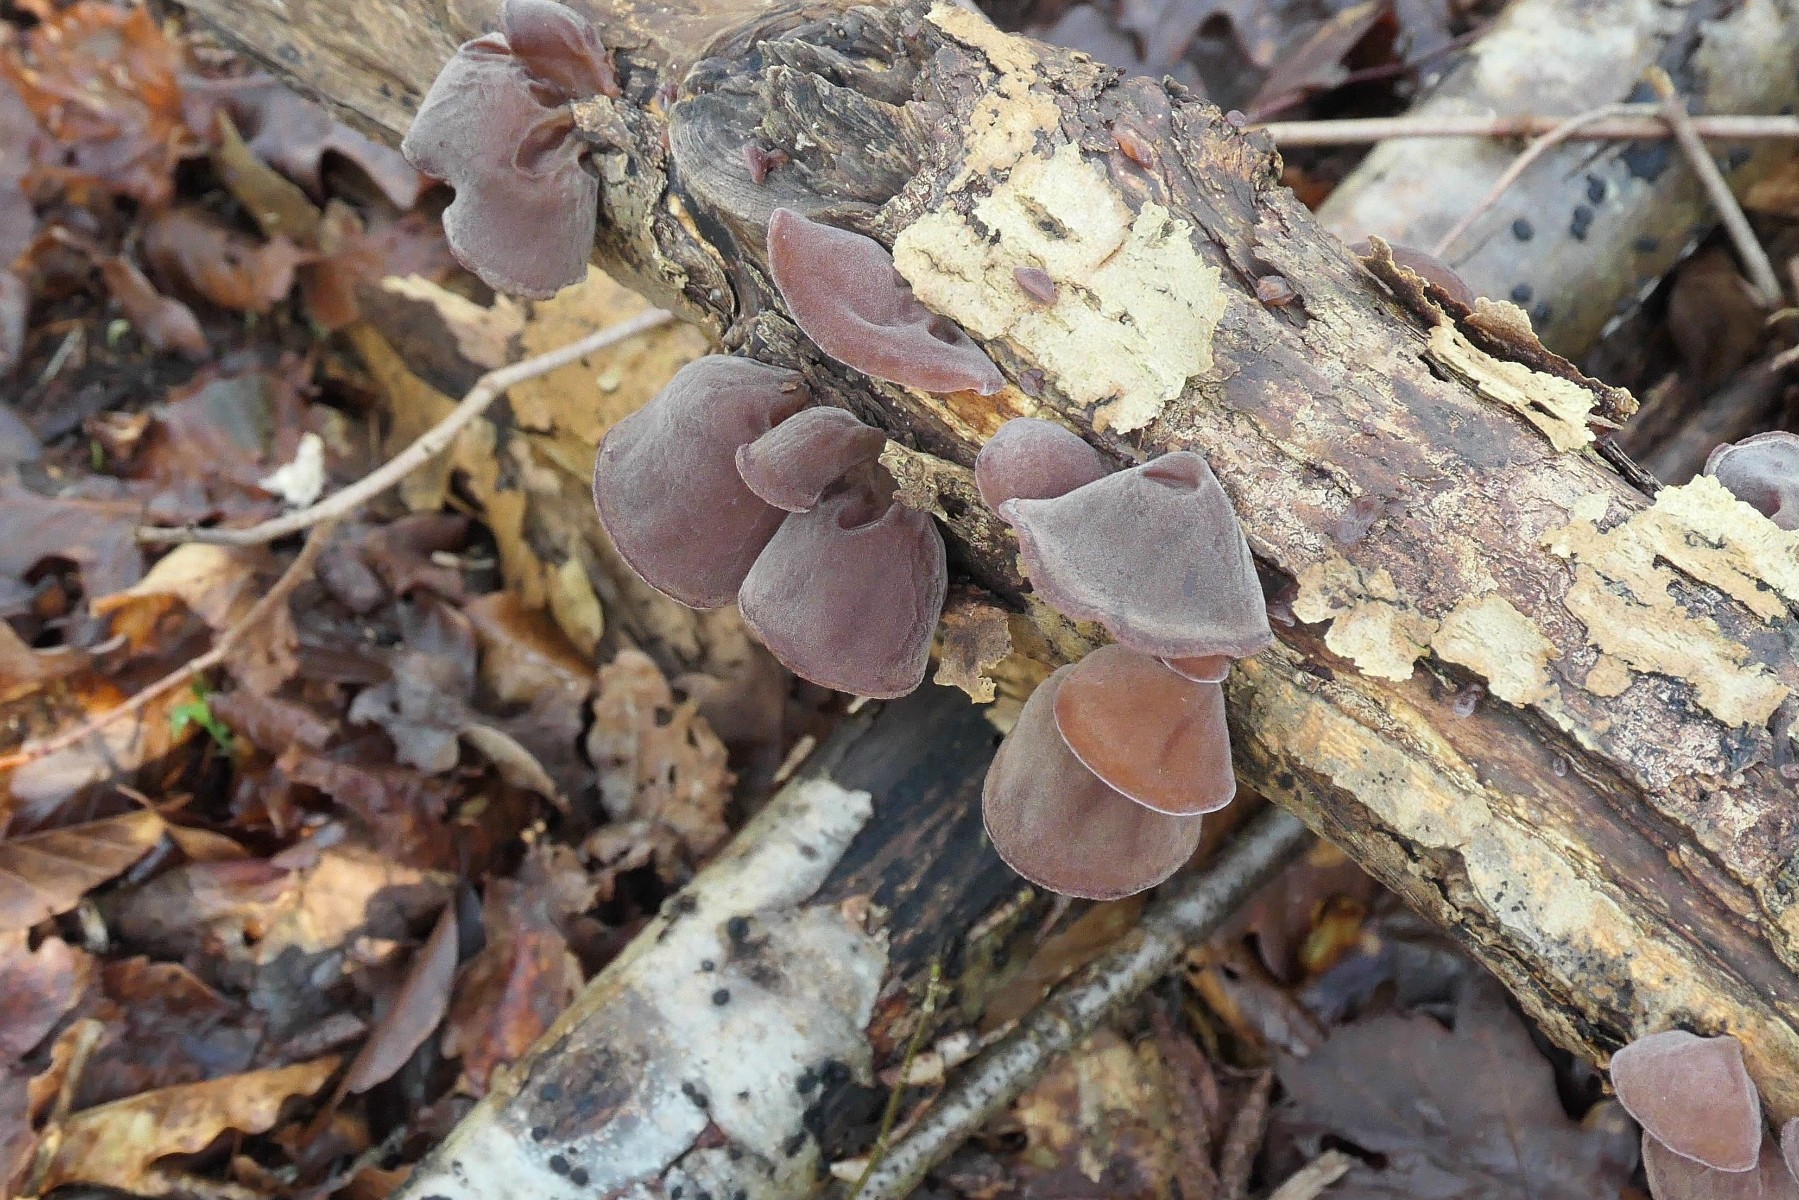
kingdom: Fungi
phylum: Basidiomycota
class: Agaricomycetes
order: Auriculariales
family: Auriculariaceae
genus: Auricularia
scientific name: Auricularia auricula-judae
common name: almindelig judasøre
